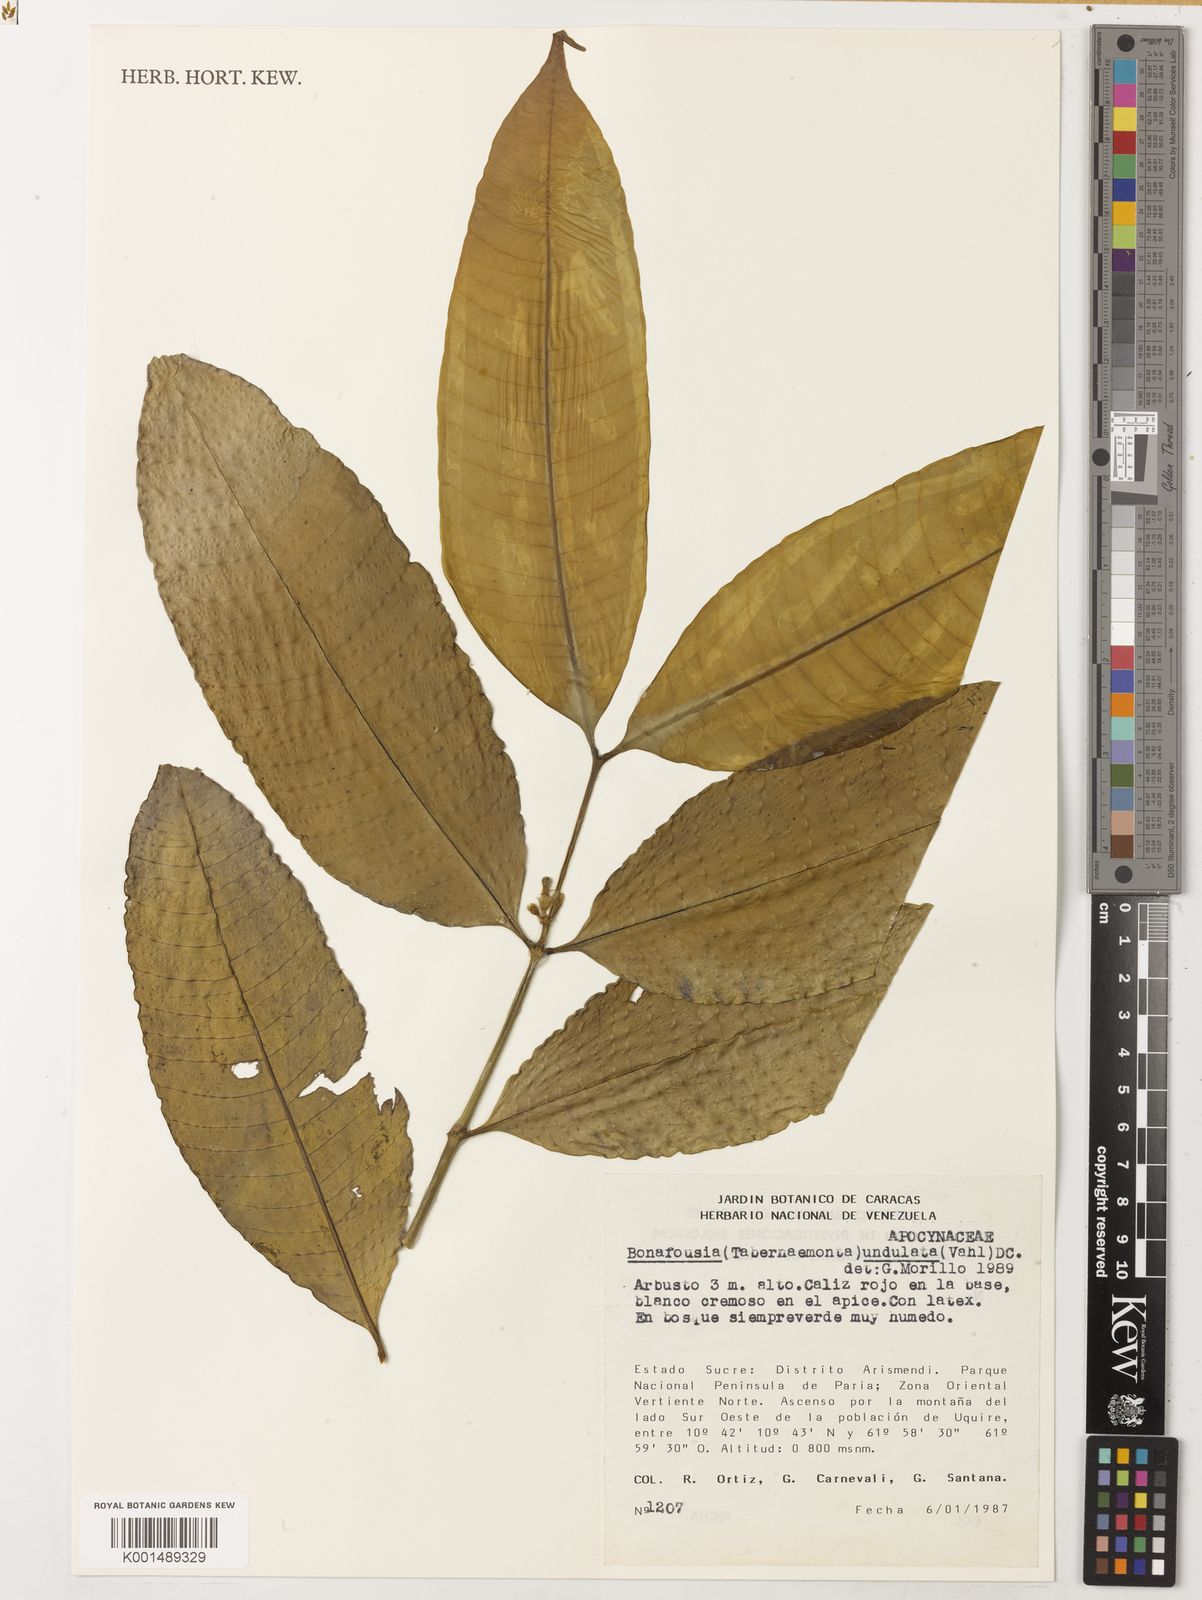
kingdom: Plantae
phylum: Tracheophyta
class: Magnoliopsida
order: Gentianales
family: Apocynaceae
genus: Tabernaemontana
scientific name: Tabernaemontana undulata
